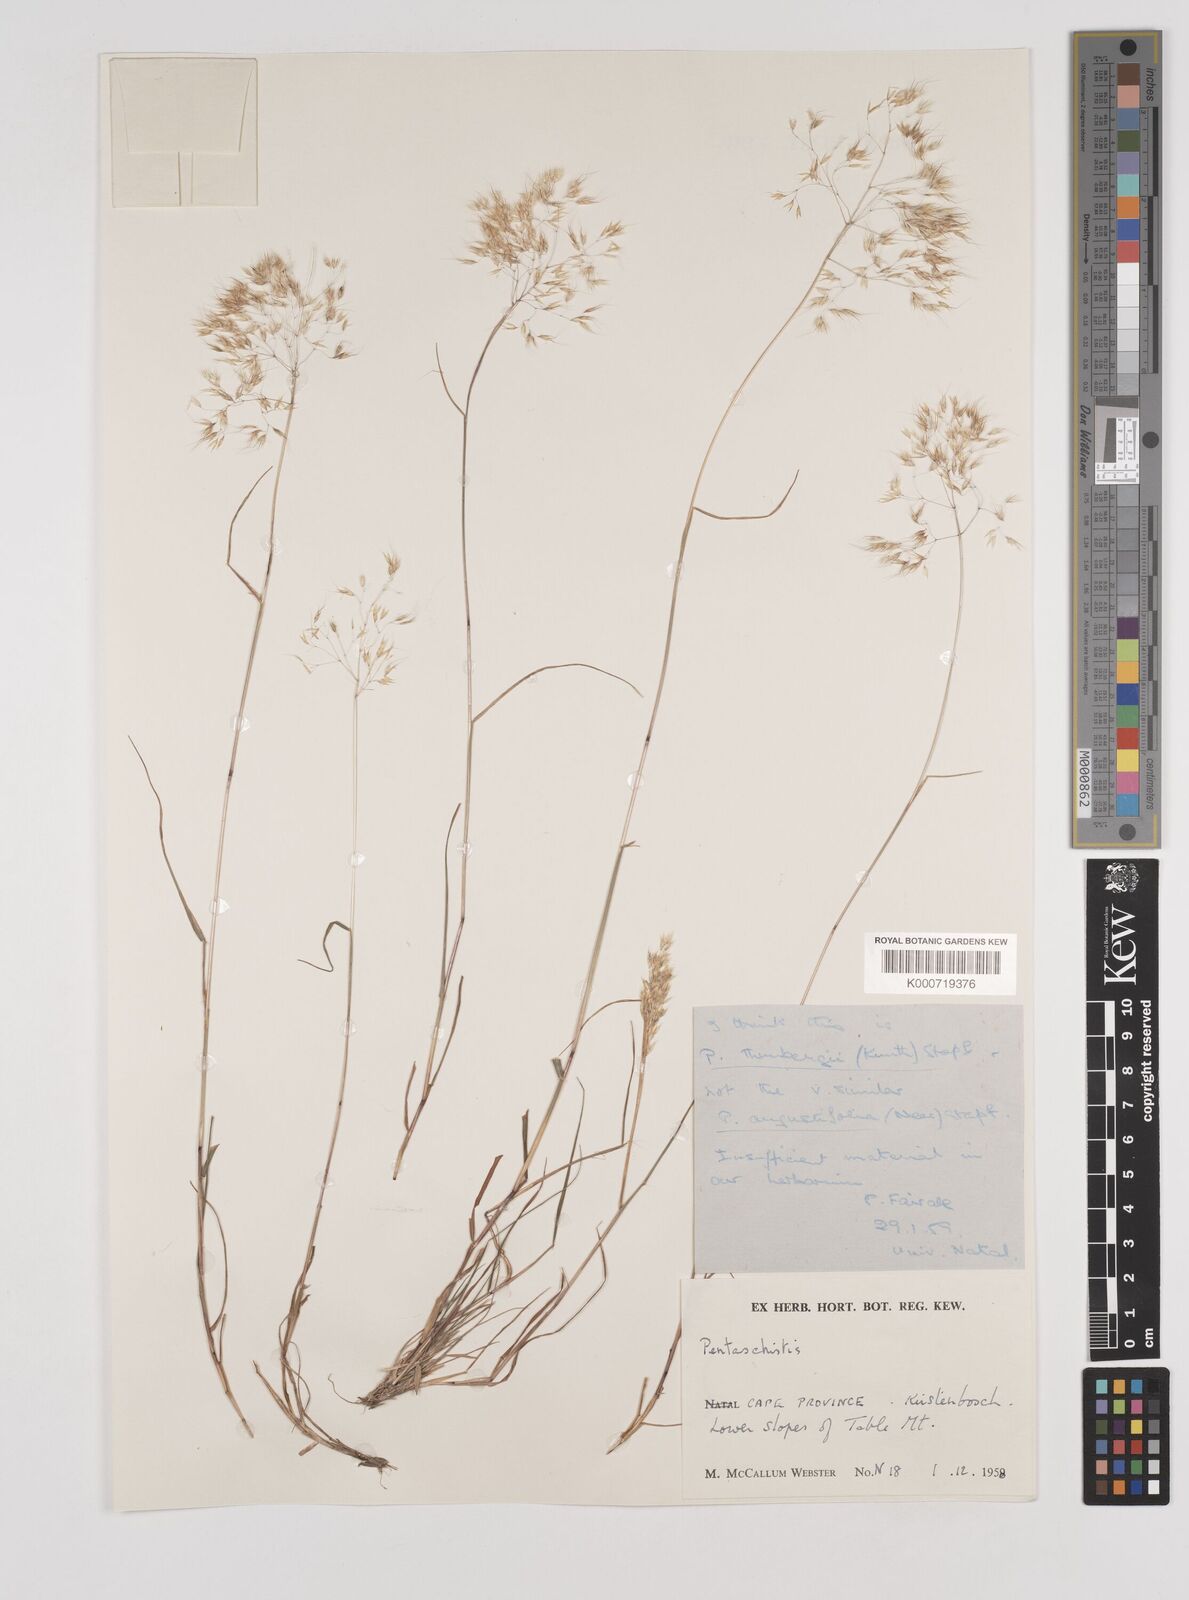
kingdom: Plantae
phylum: Tracheophyta
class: Liliopsida
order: Poales
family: Poaceae
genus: Pentameris
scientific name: Pentameris triseta
